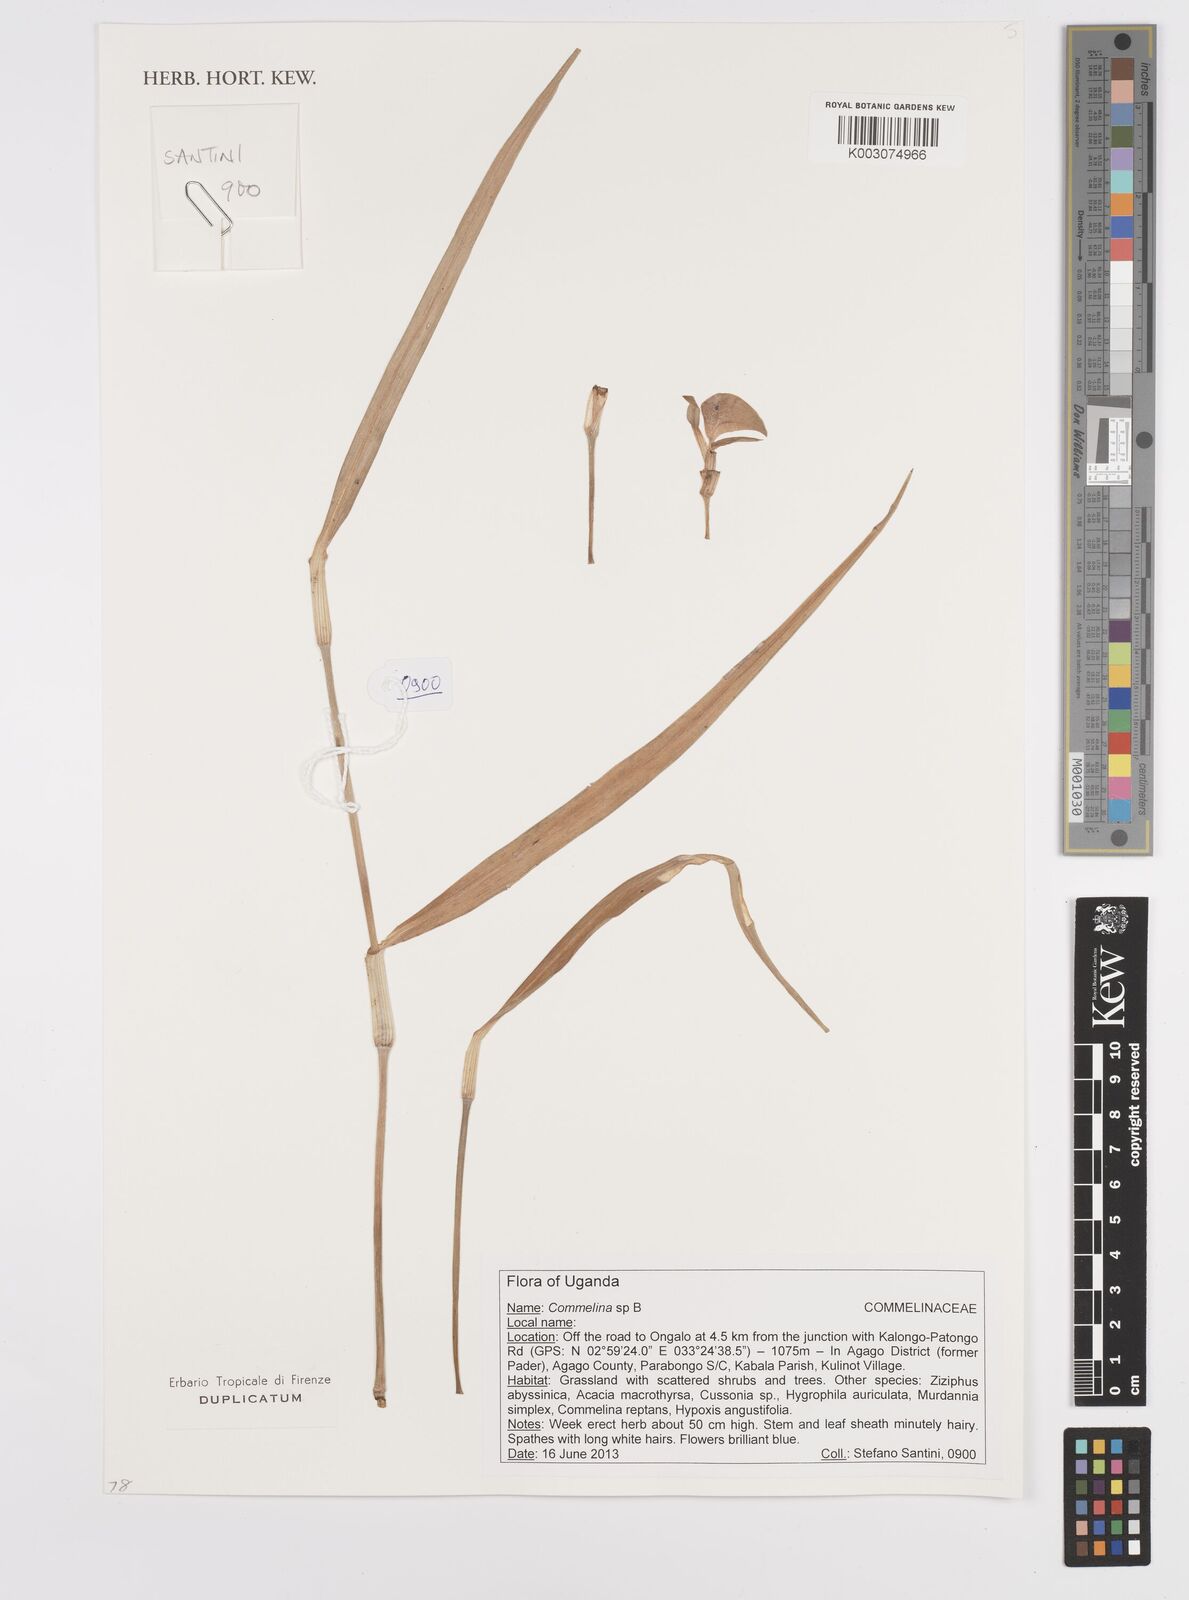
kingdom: Plantae
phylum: Tracheophyta
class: Liliopsida
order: Commelinales
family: Commelinaceae
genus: Commelina
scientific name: Commelina
